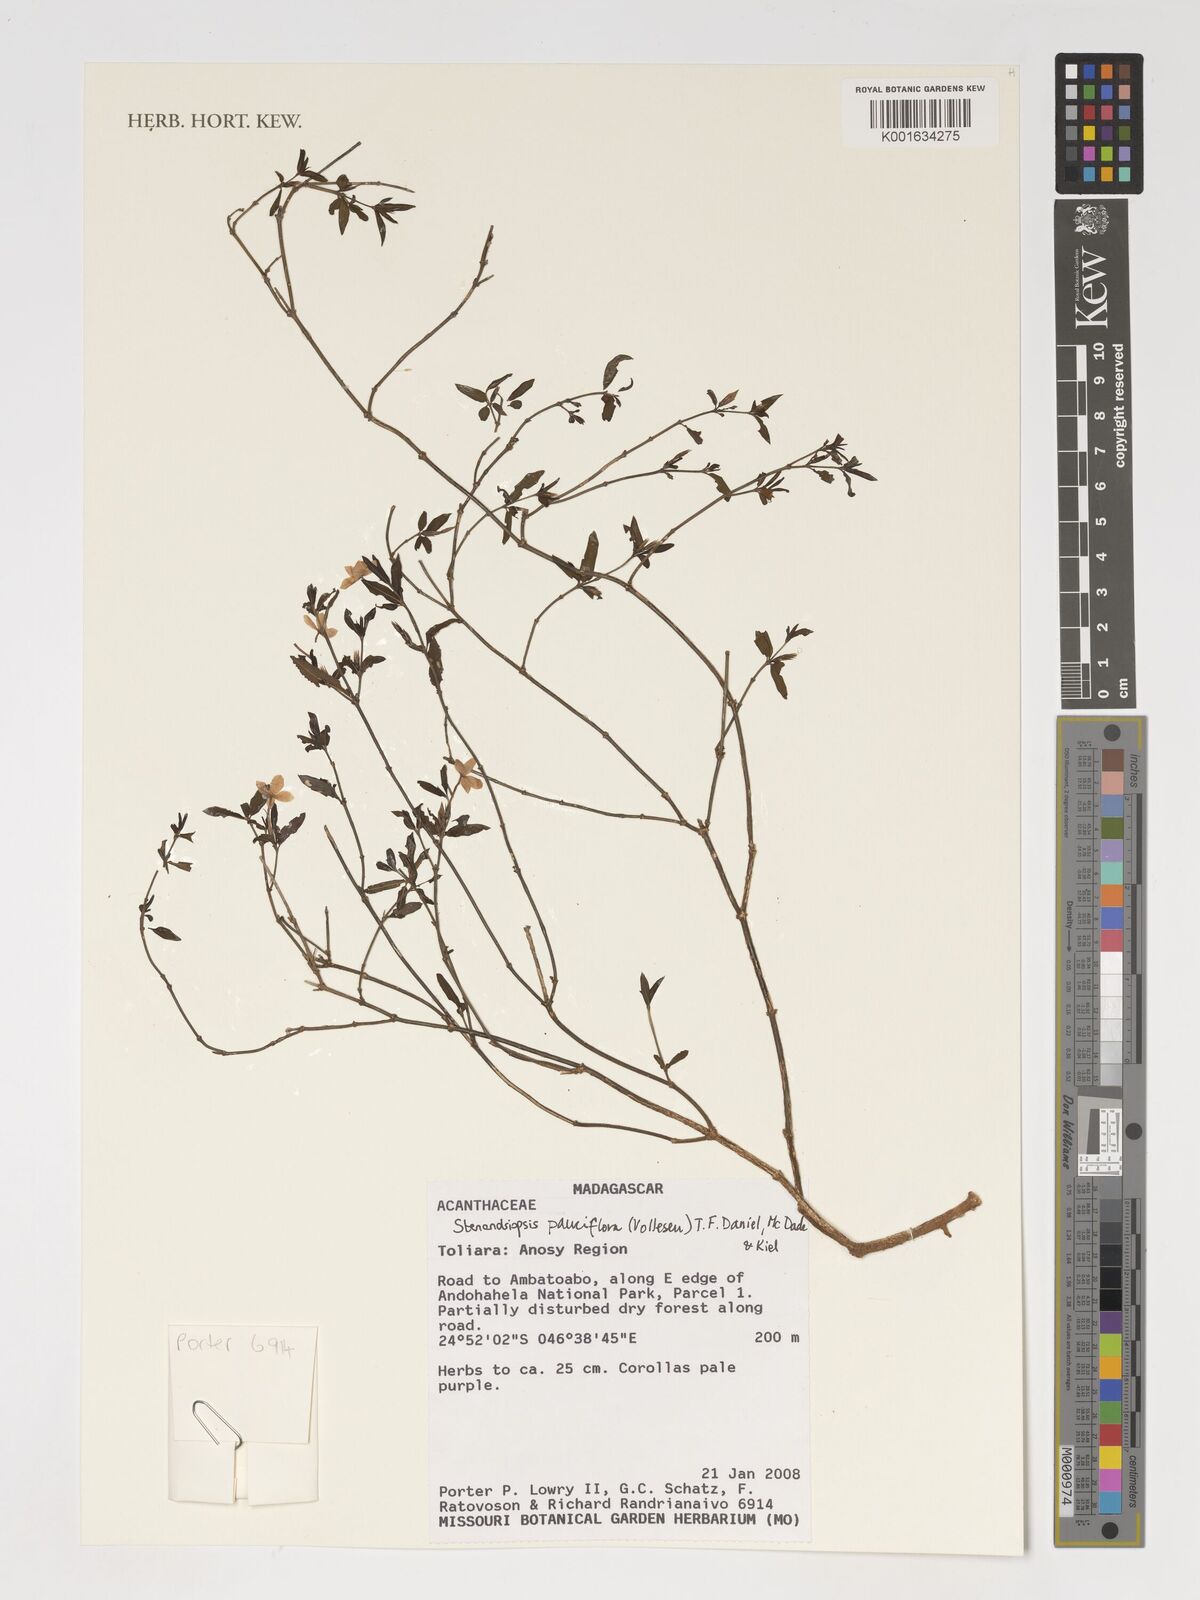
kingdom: Plantae
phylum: Tracheophyta
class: Magnoliopsida
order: Lamiales
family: Acanthaceae
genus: Stenandriopsis
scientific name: Stenandriopsis
